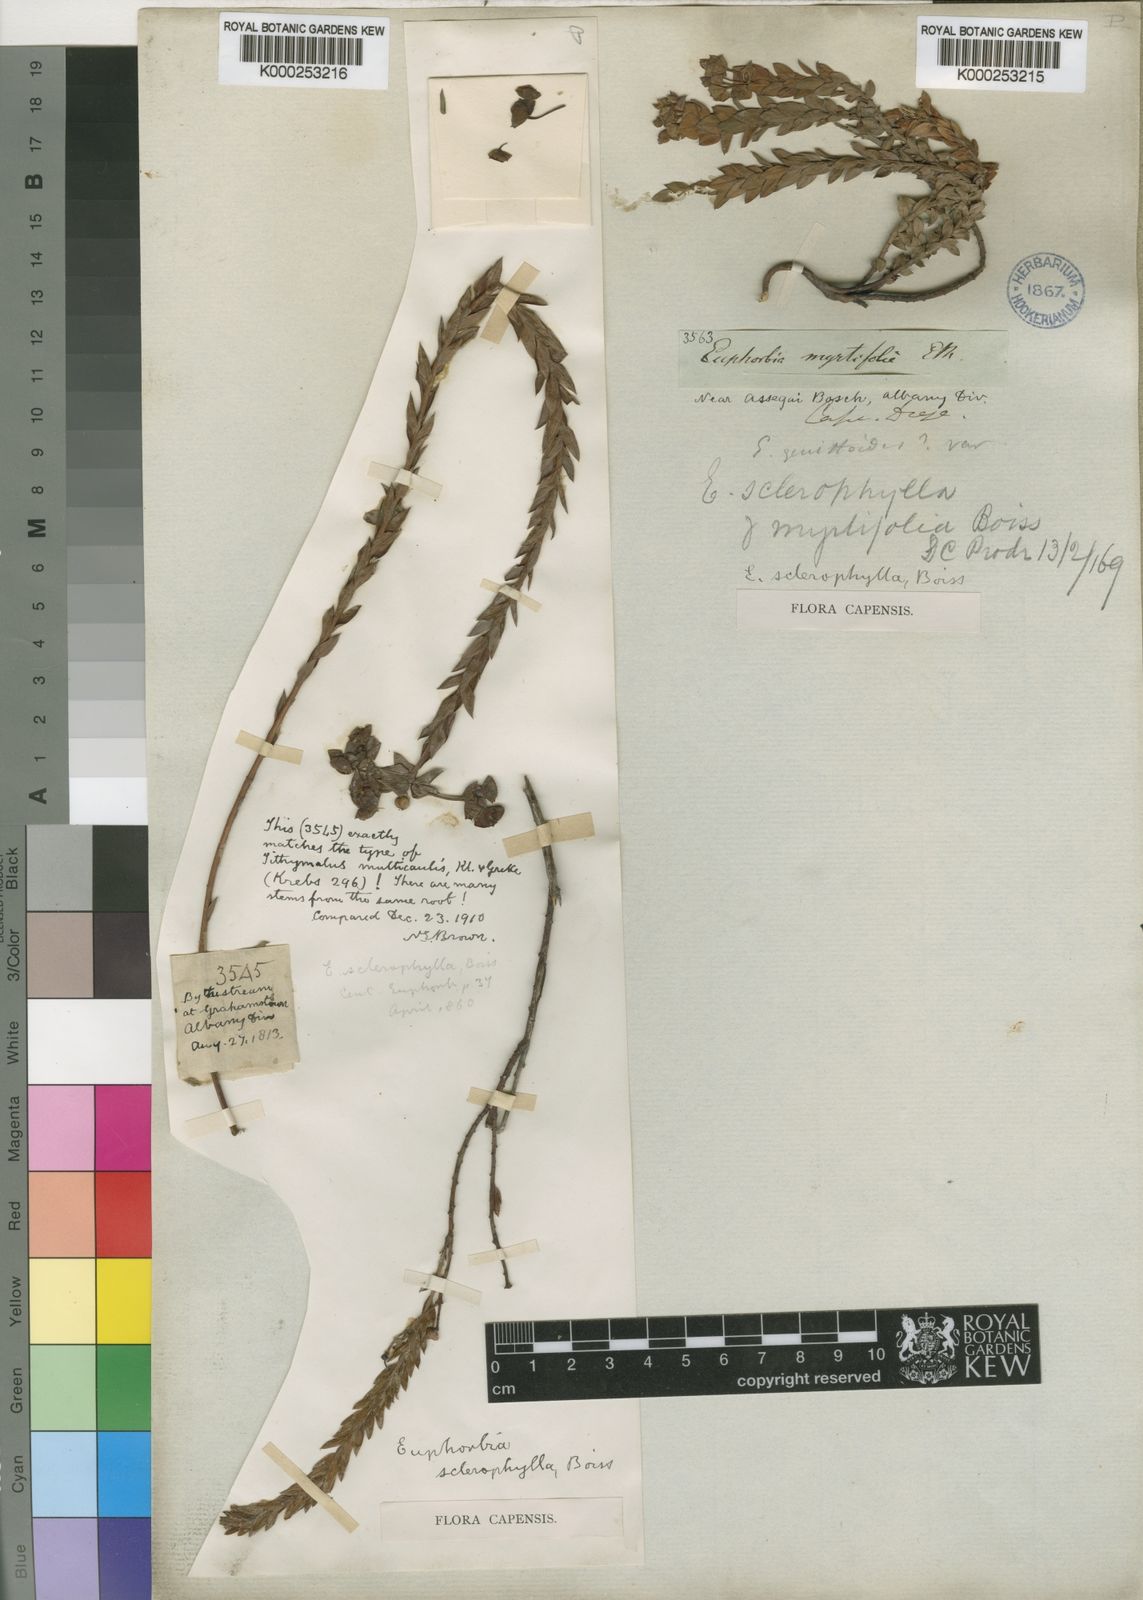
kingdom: Plantae
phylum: Tracheophyta
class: Magnoliopsida
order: Malpighiales
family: Euphorbiaceae
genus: Euphorbia
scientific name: Euphorbia sclerophylla
